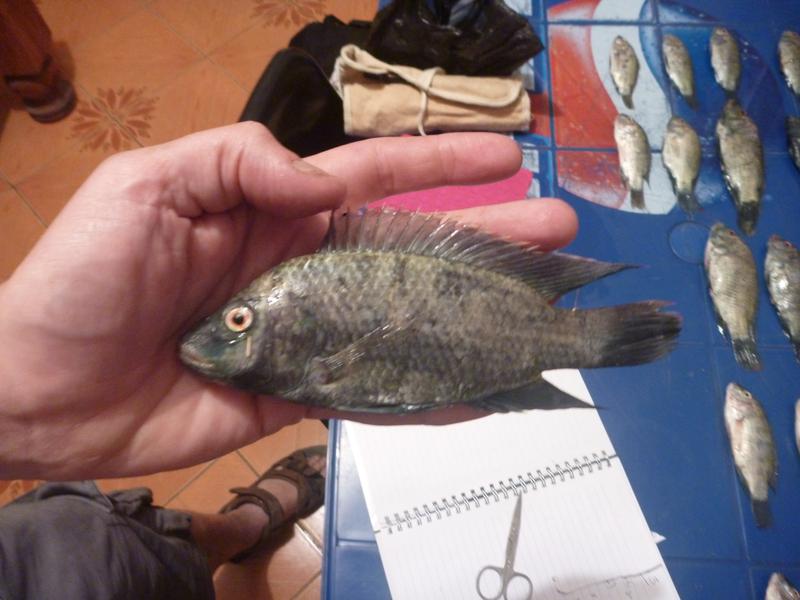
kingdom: Animalia
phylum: Chordata
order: Perciformes
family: Cichlidae
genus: Oreochromis
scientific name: Oreochromis urolepis
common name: Wami tilapia
